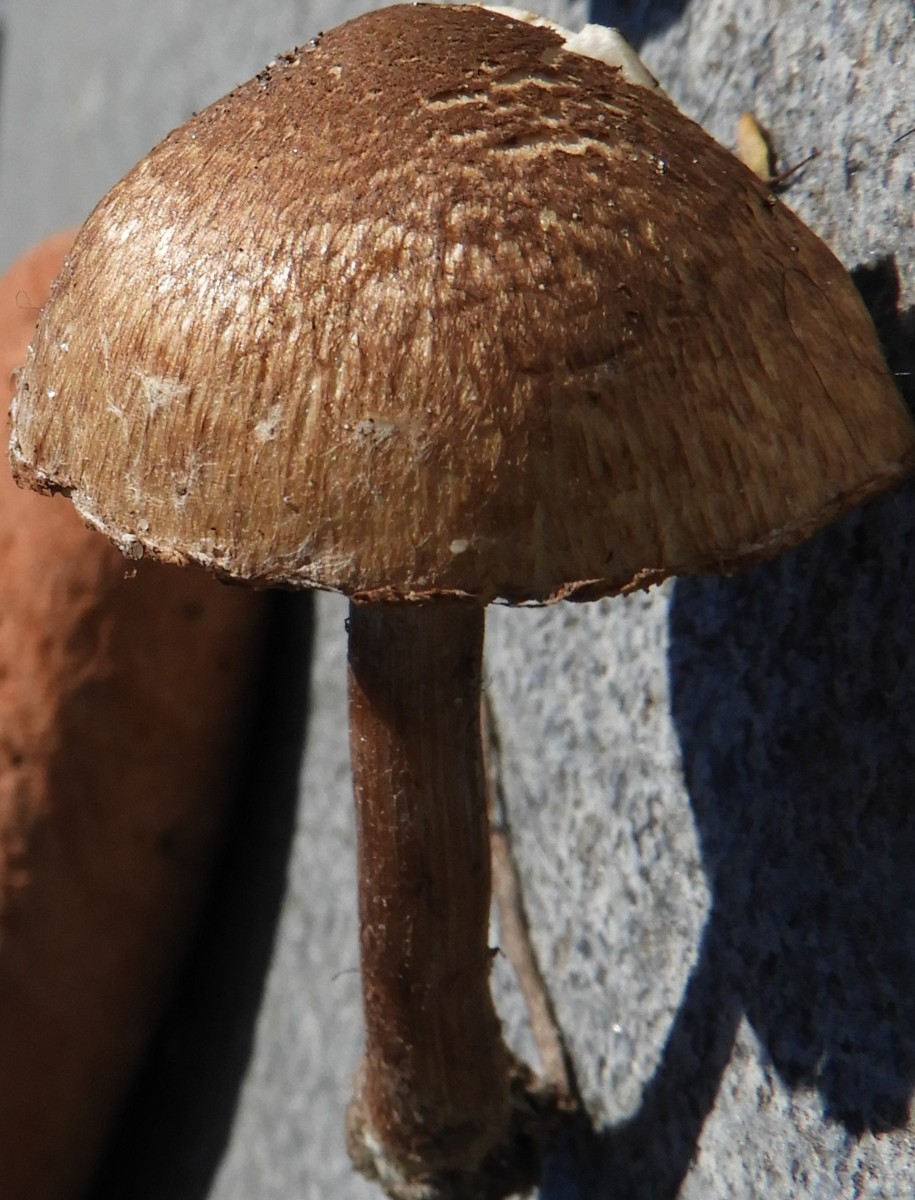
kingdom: Fungi
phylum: Basidiomycota
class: Agaricomycetes
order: Agaricales
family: Inocybaceae
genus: Inocybe
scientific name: Inocybe
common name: trævlhat
